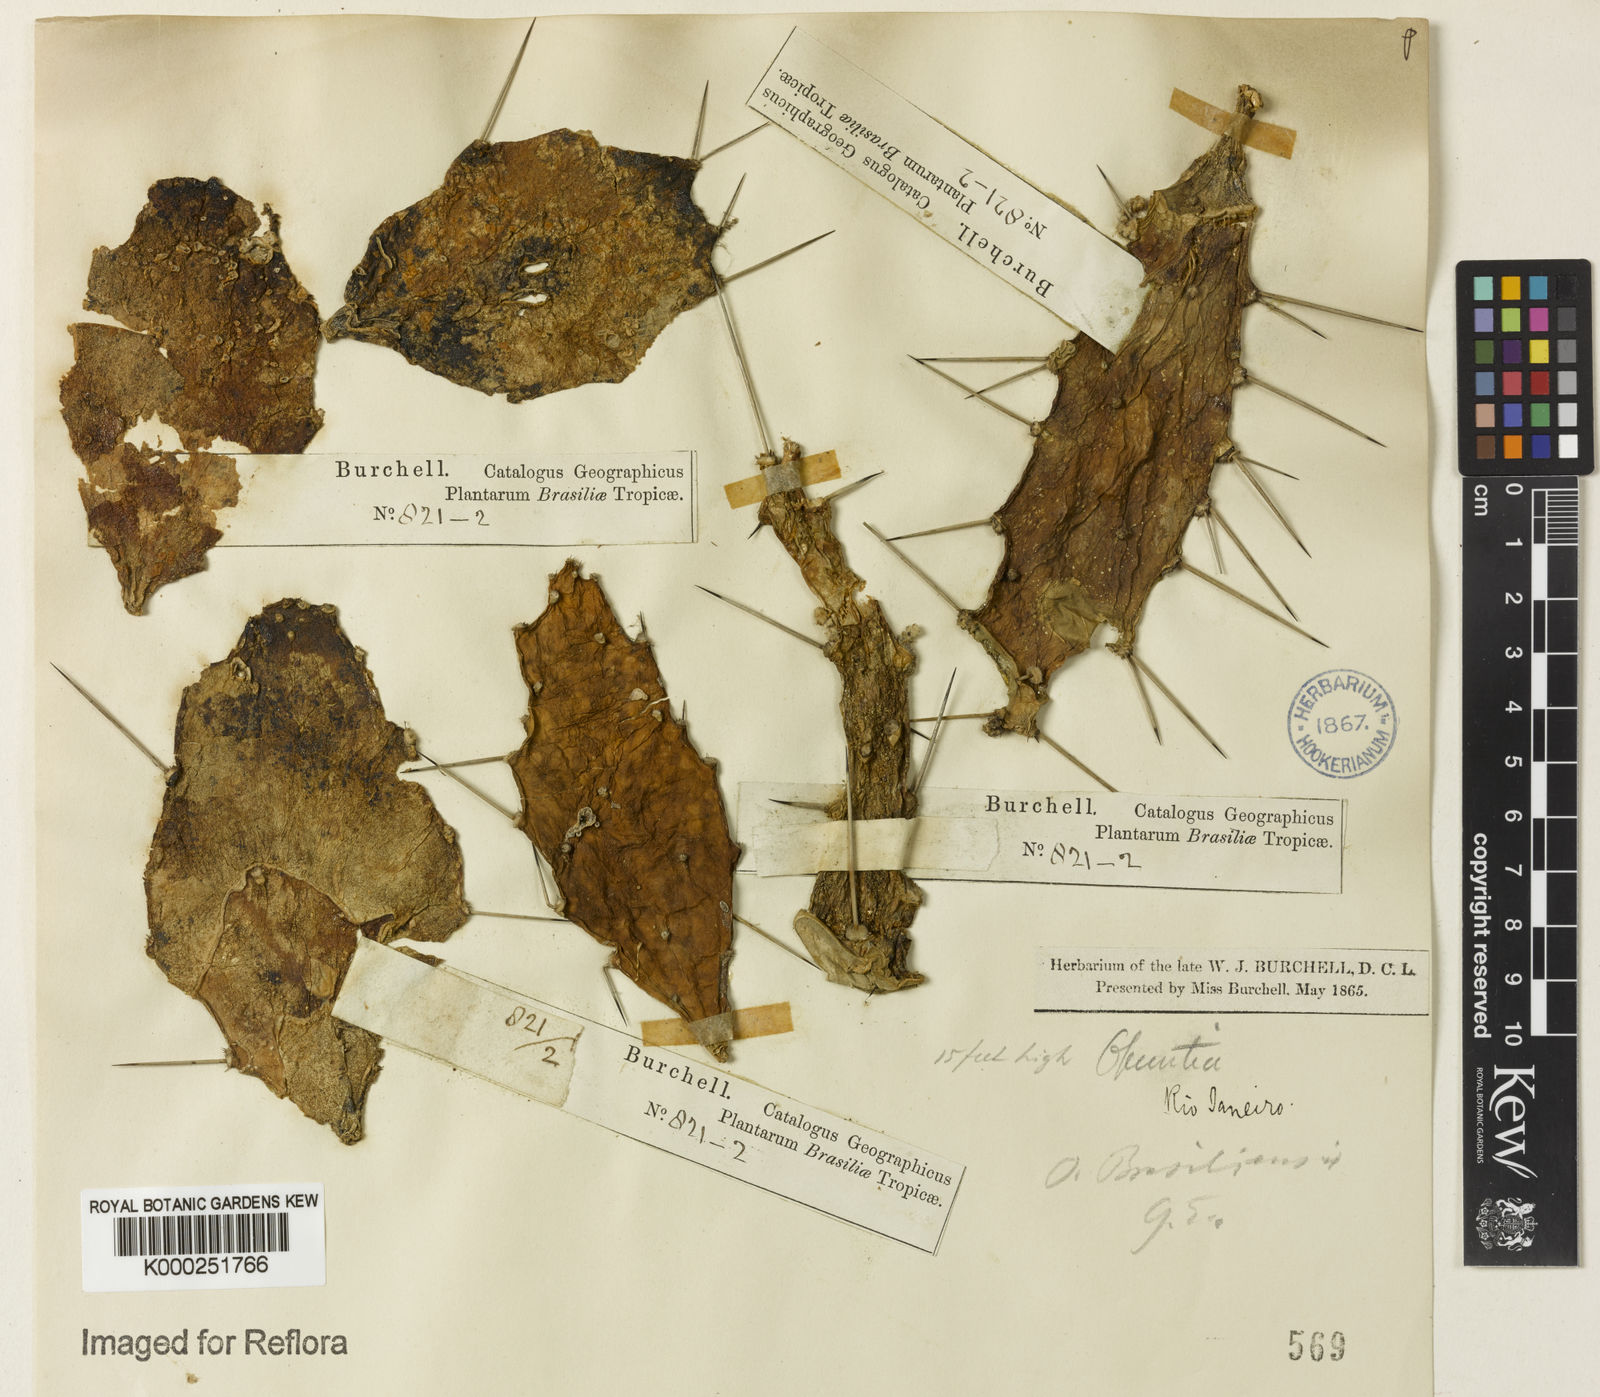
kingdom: Plantae
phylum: Tracheophyta
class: Magnoliopsida
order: Caryophyllales
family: Cactaceae
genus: Brasiliopuntia
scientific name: Brasiliopuntia brasiliensis
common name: Brazilian pricklypear
